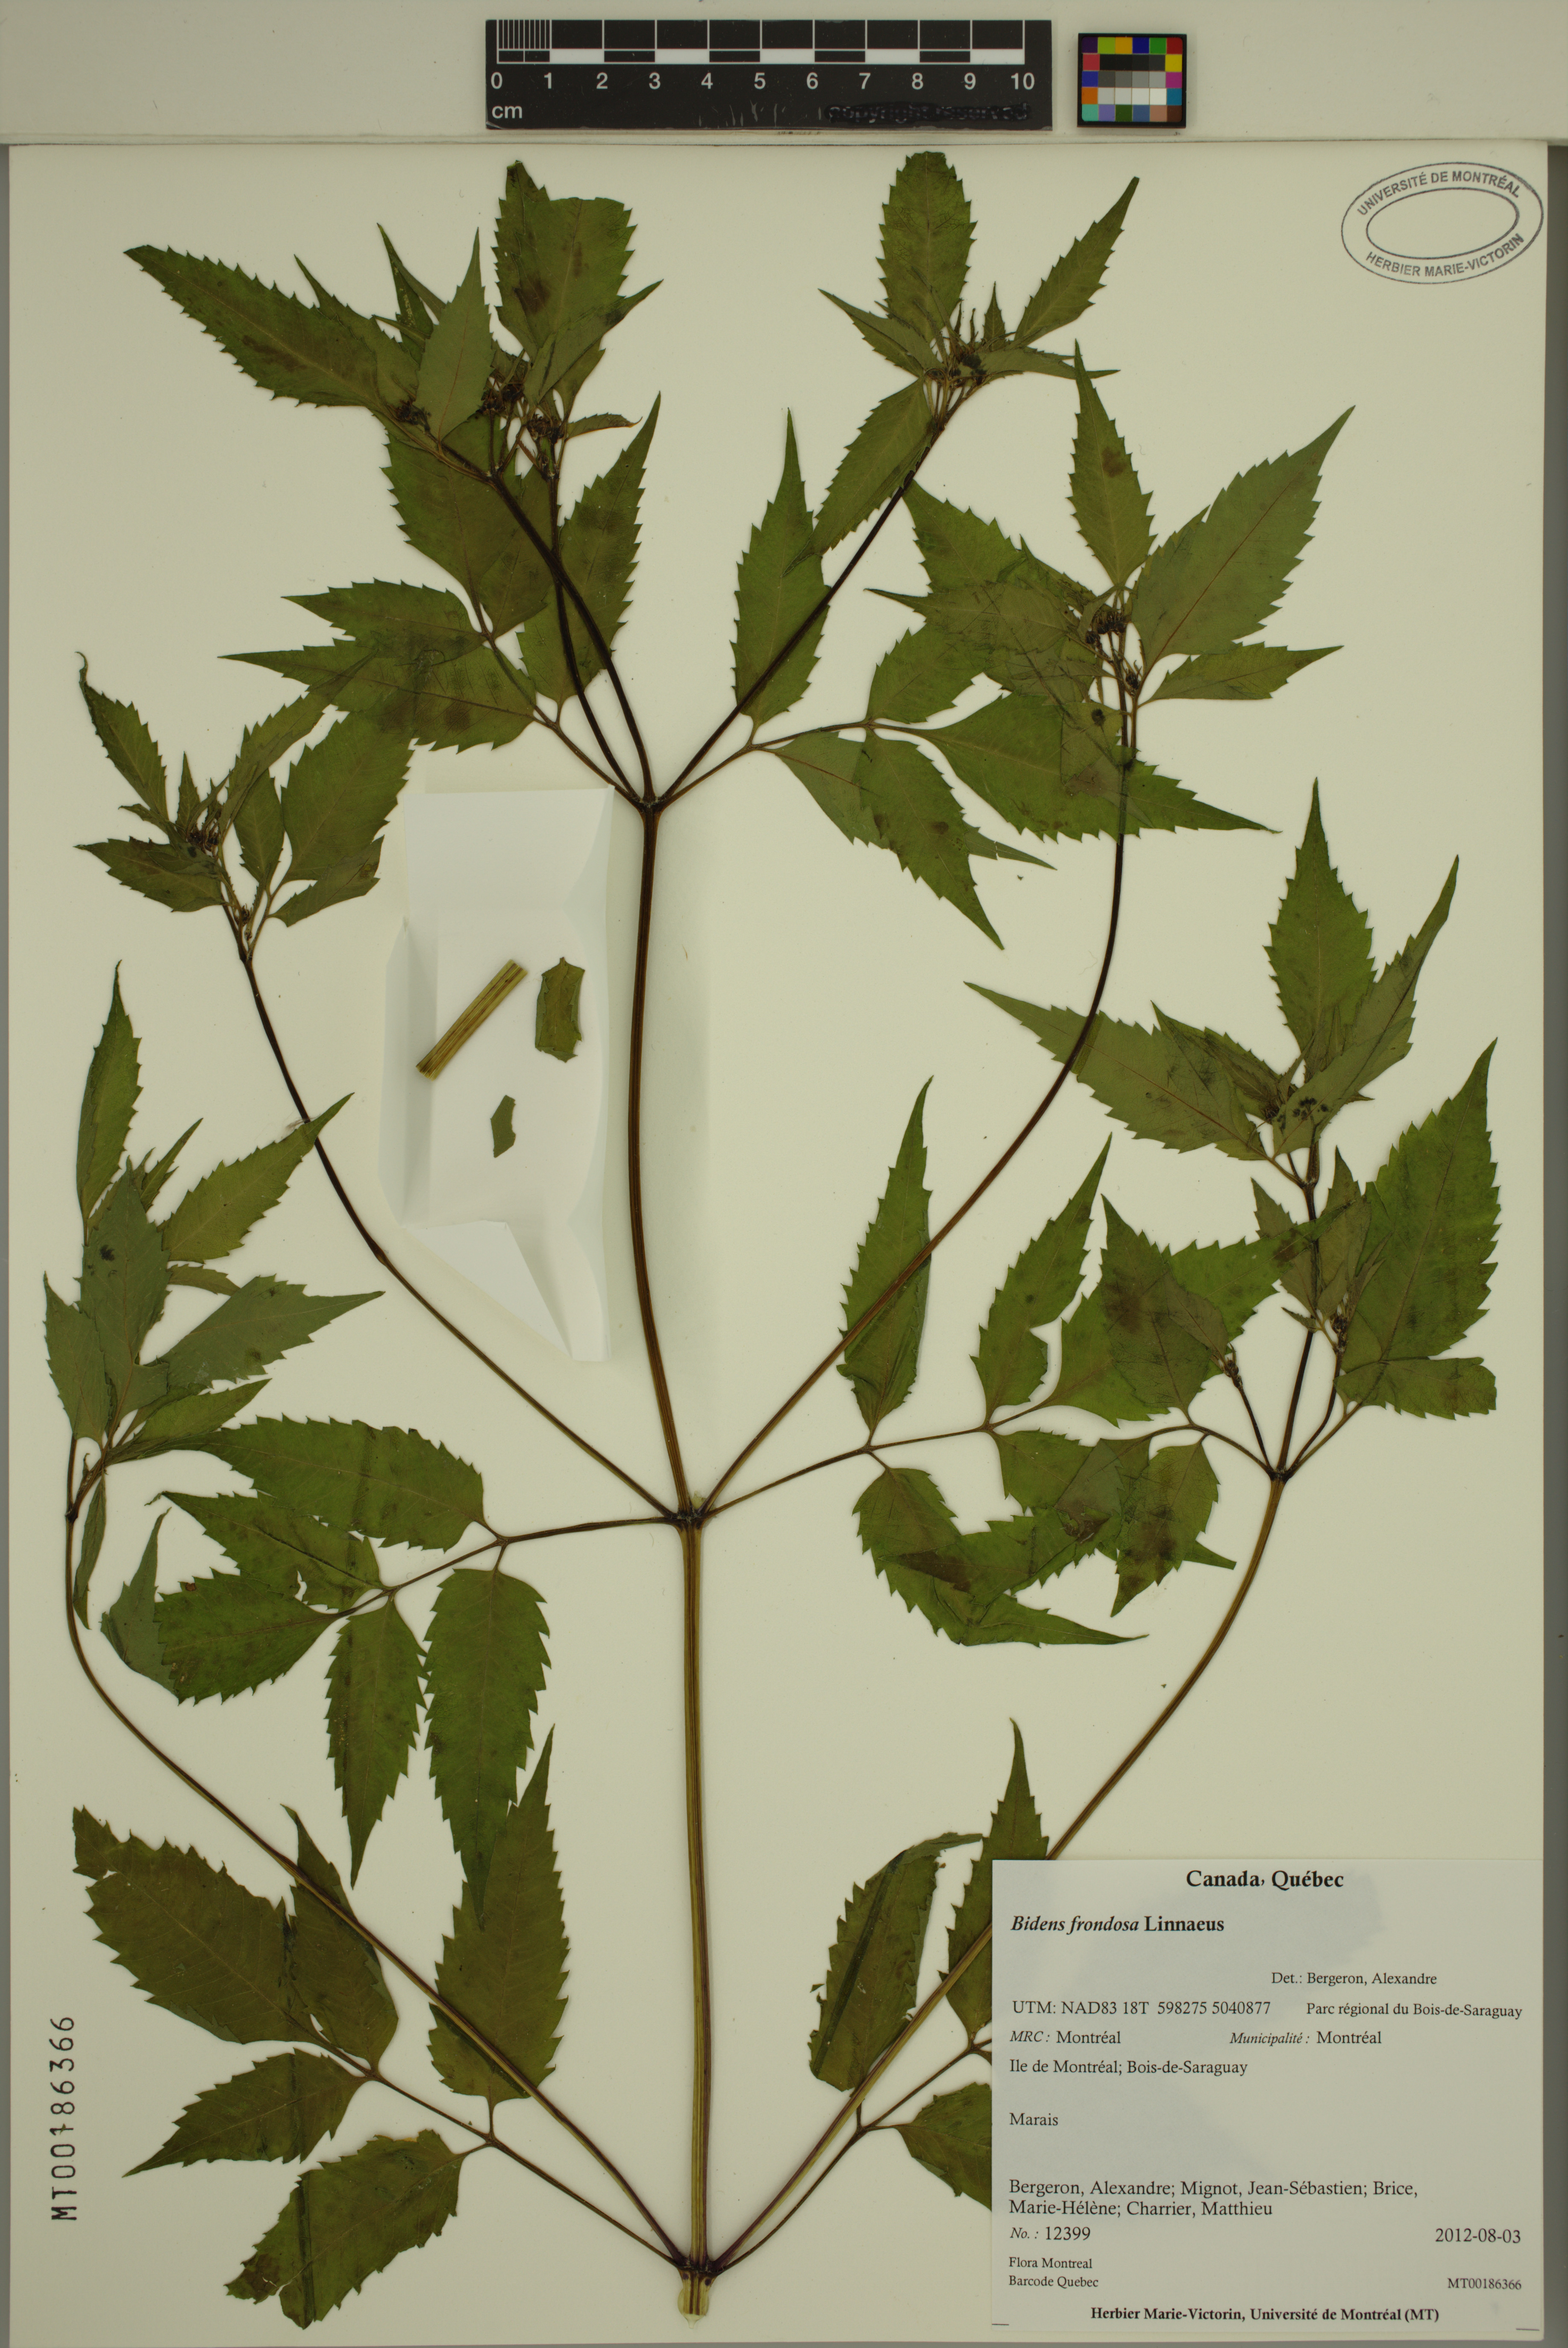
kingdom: Plantae
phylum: Tracheophyta
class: Magnoliopsida
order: Asterales
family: Asteraceae
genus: Bidens
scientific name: Bidens frondosa
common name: Beggarticks
